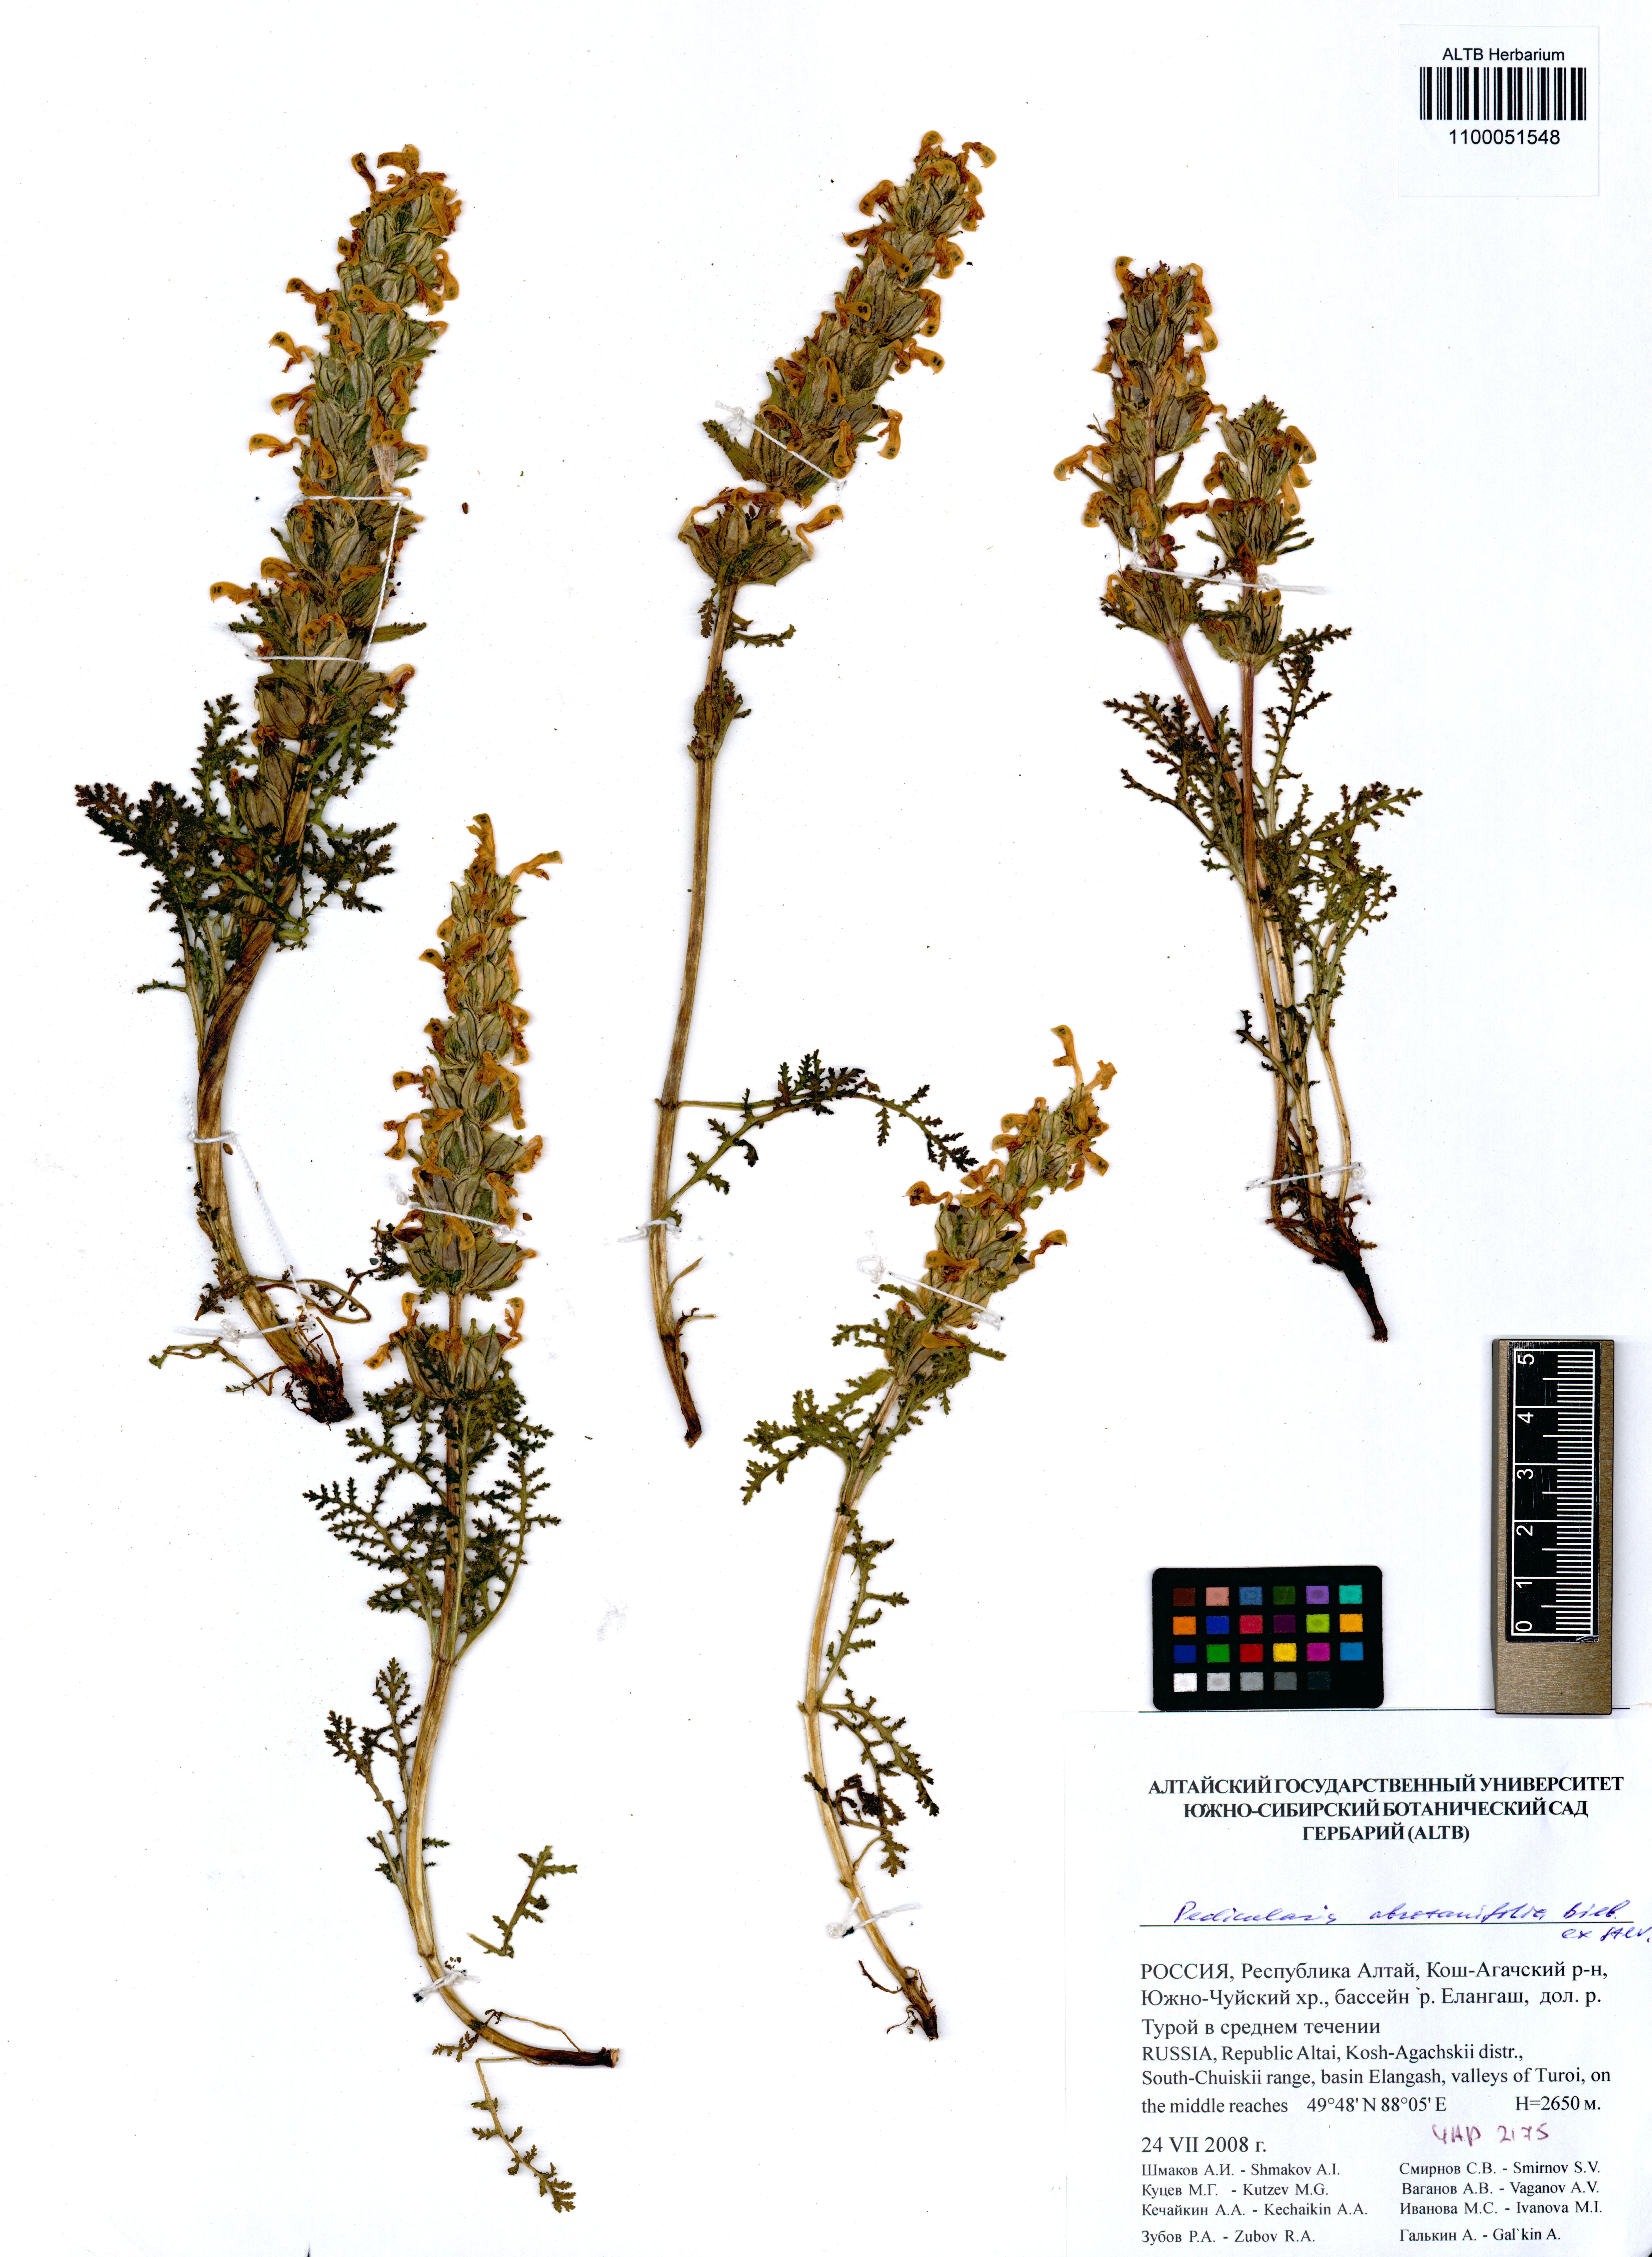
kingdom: Plantae
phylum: Tracheophyta
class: Magnoliopsida
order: Lamiales
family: Orobanchaceae
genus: Pedicularis
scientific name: Pedicularis abrotanifolia
